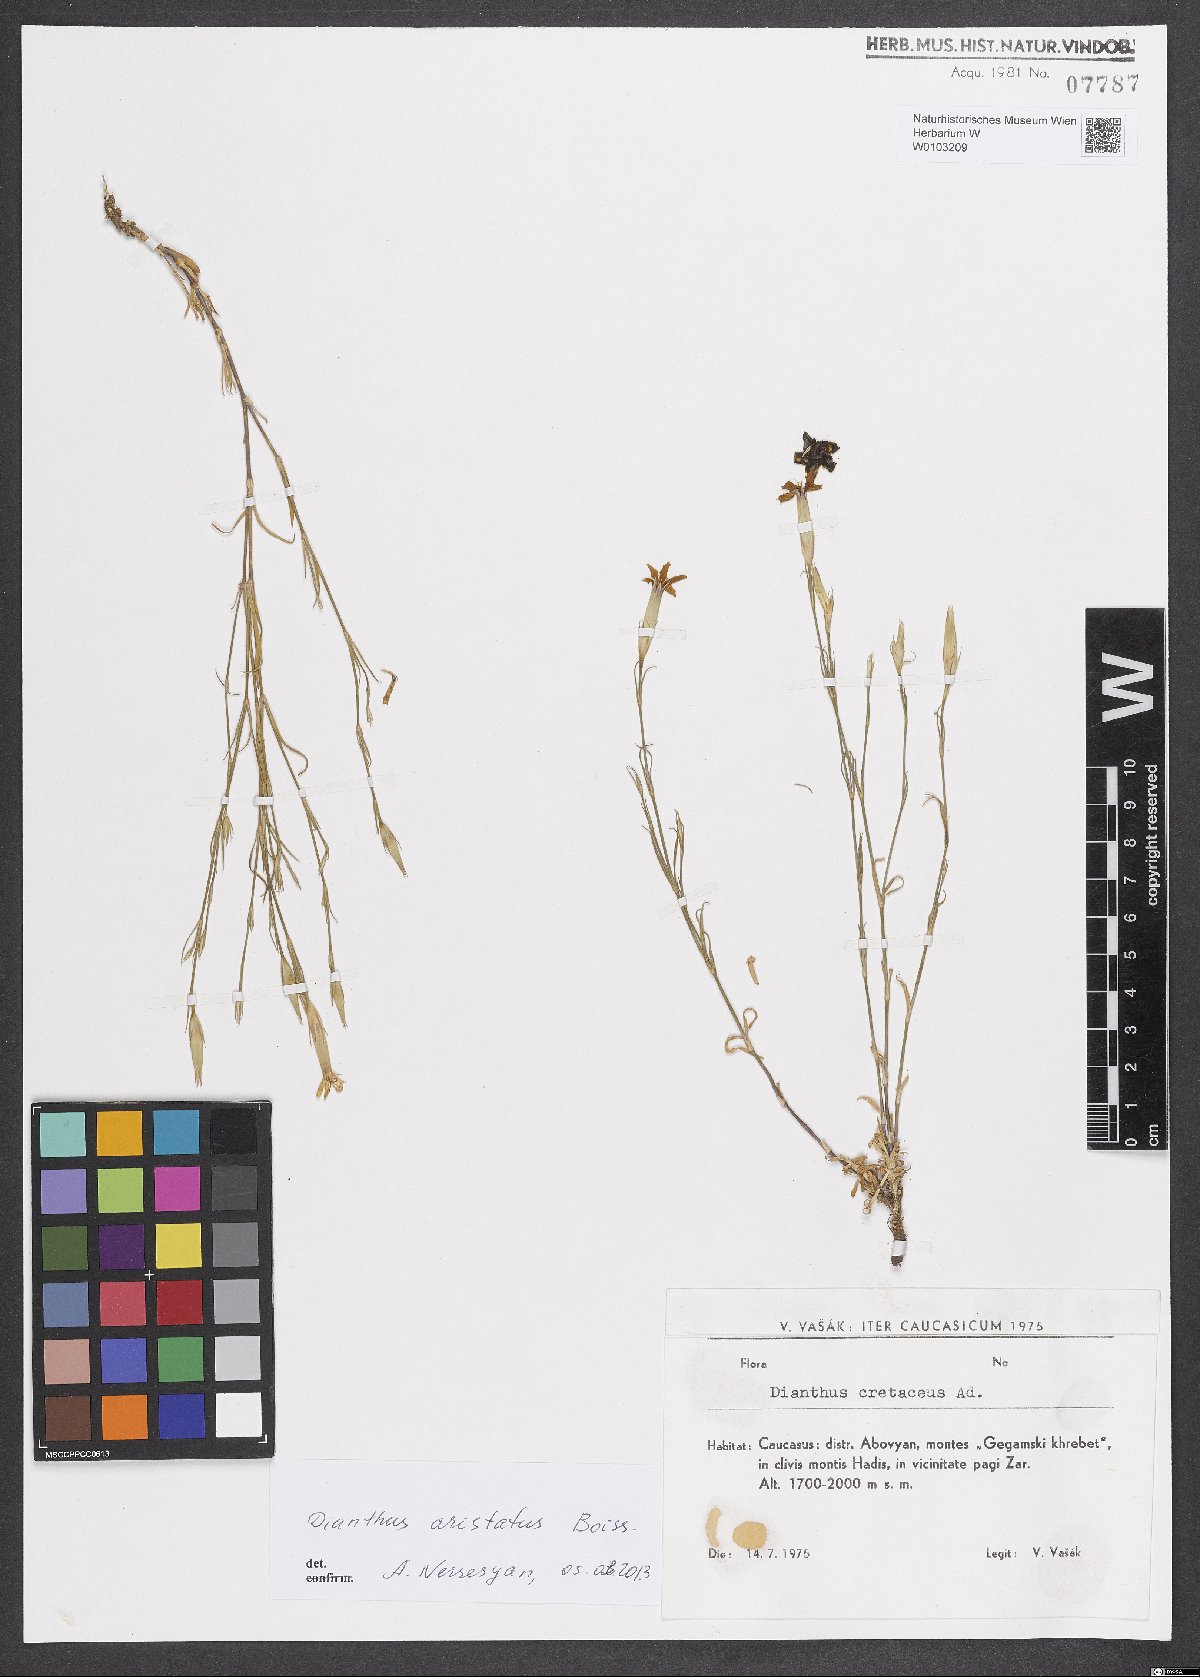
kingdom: Plantae
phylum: Tracheophyta
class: Magnoliopsida
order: Caryophyllales
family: Caryophyllaceae
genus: Dianthus
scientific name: Dianthus aristatus
